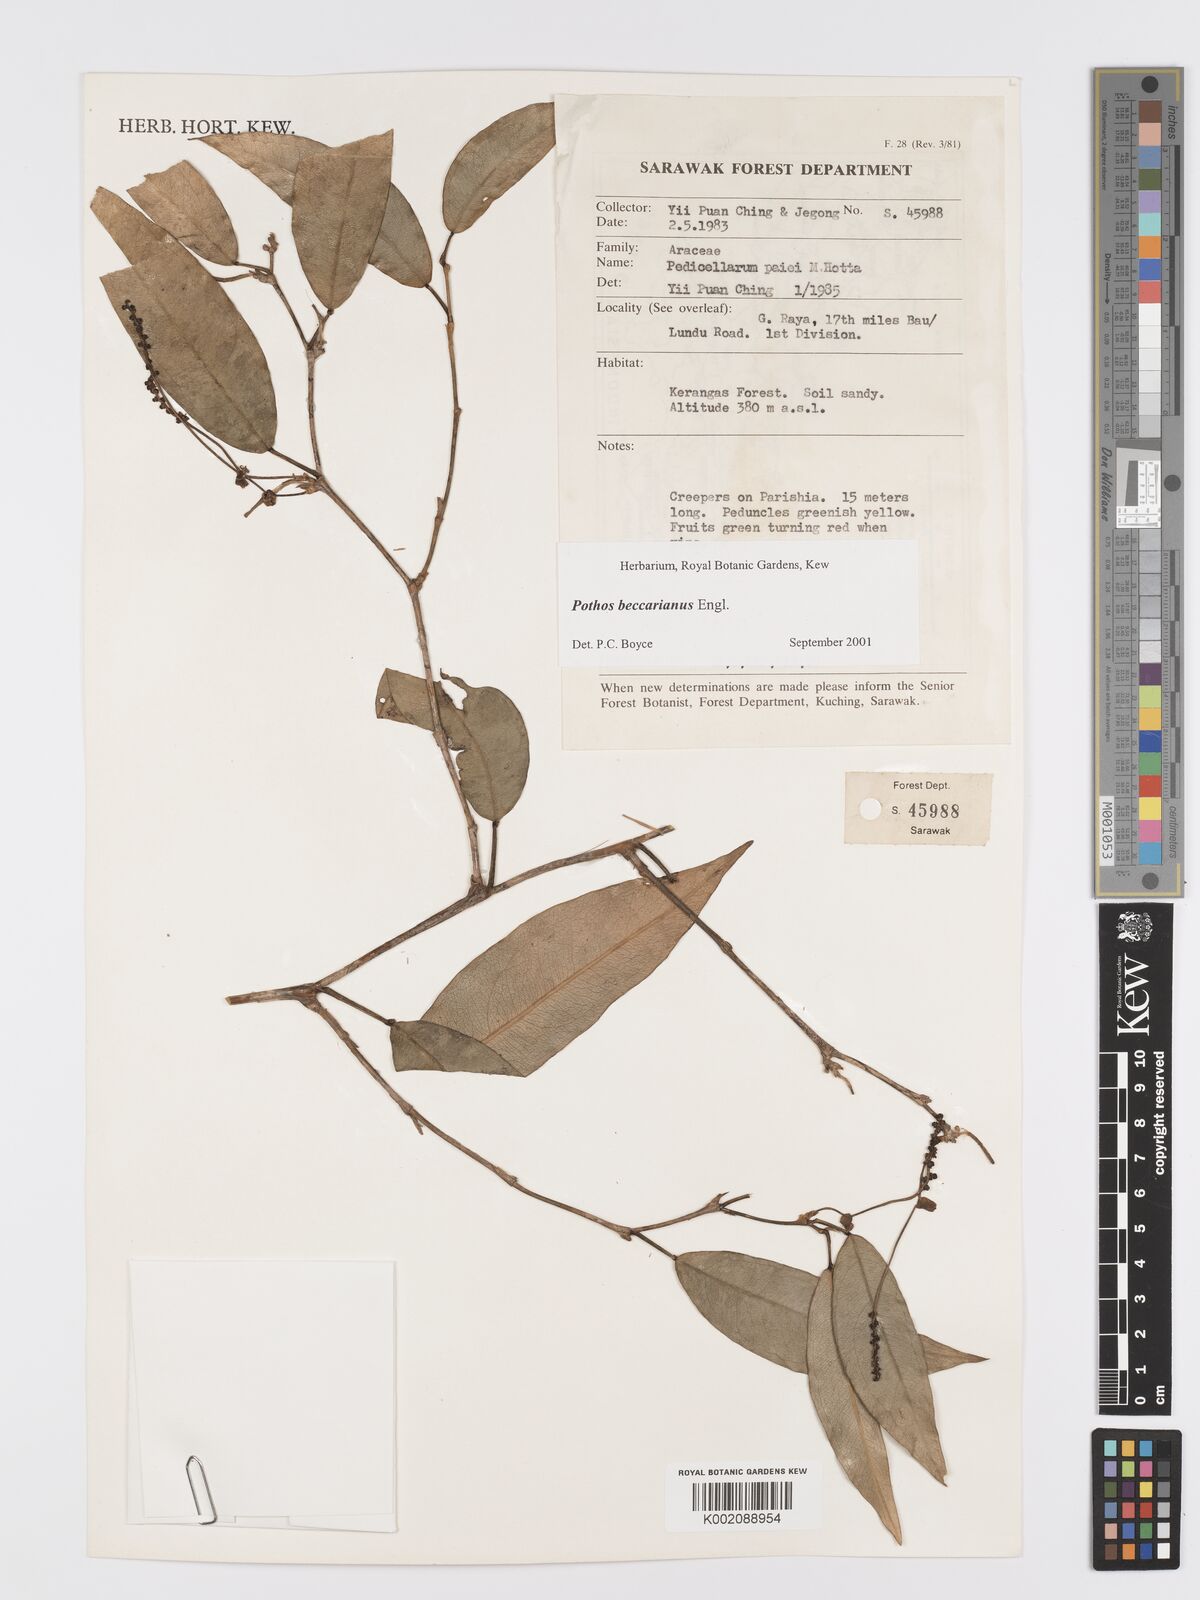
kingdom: Plantae
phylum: Tracheophyta
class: Liliopsida
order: Alismatales
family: Araceae
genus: Pothos
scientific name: Pothos beccarianus
